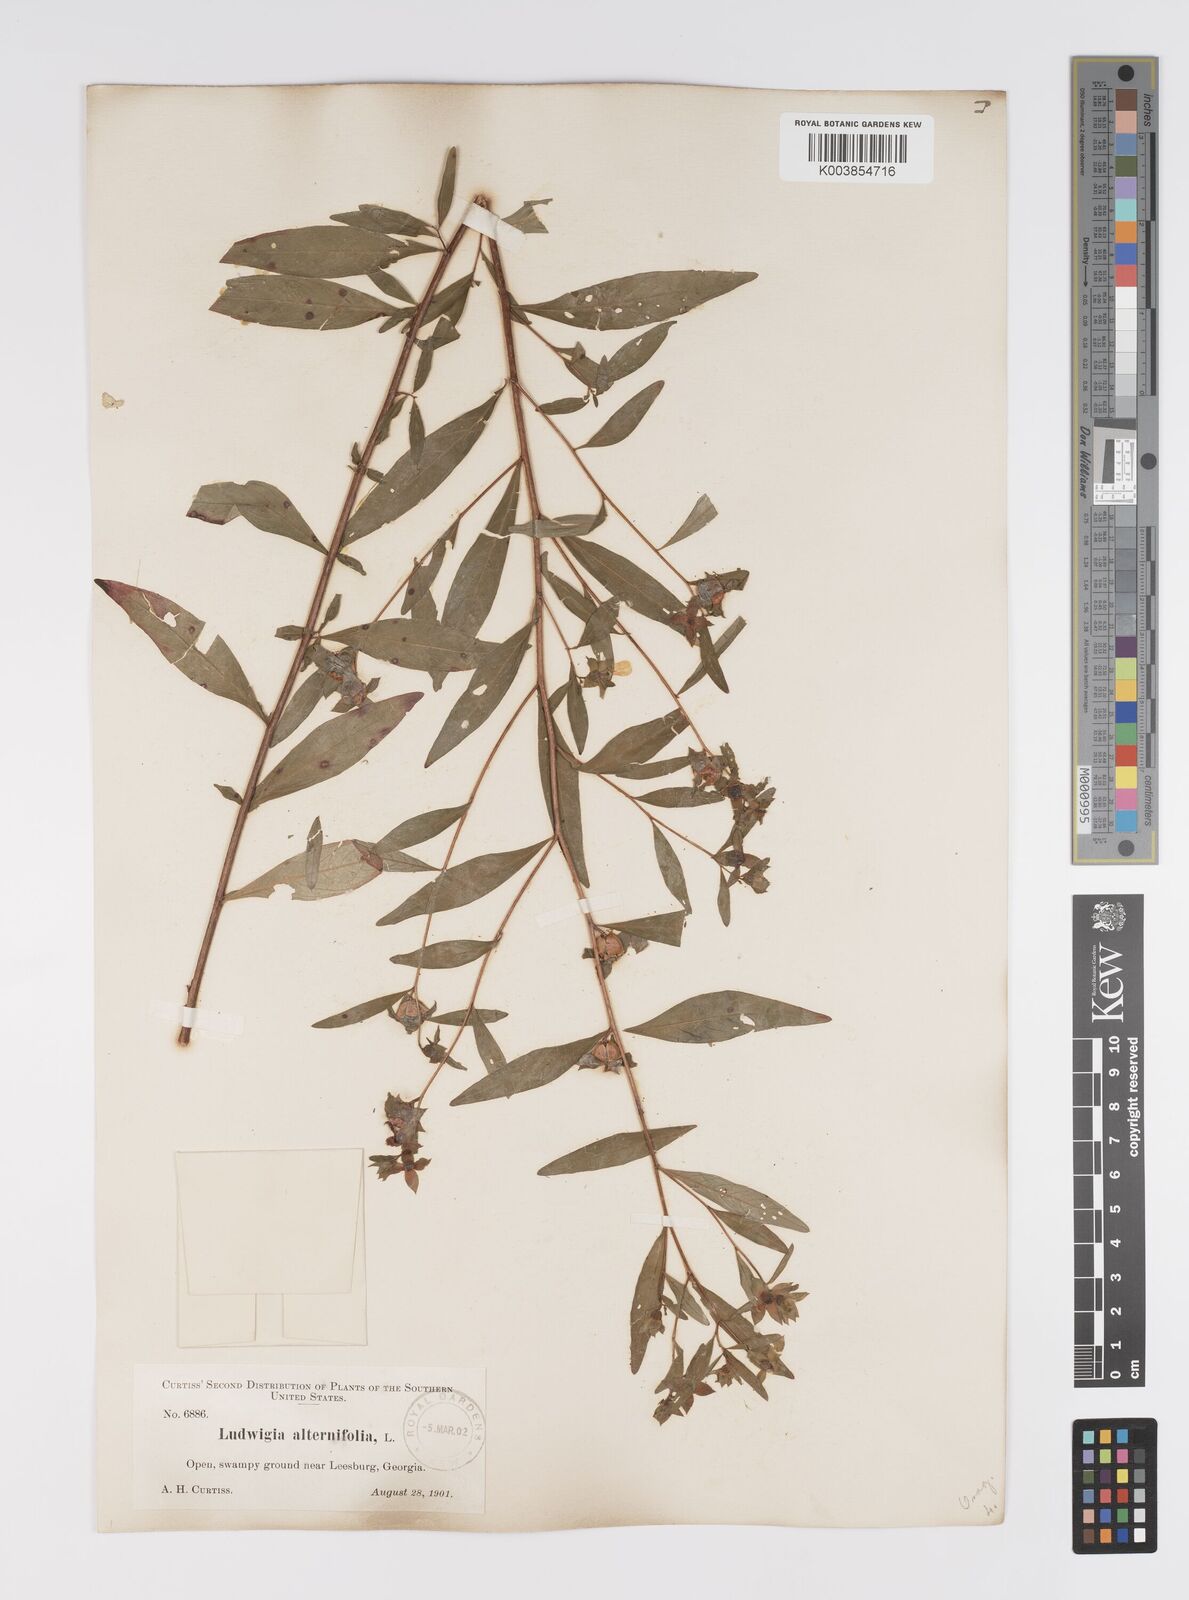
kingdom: Plantae
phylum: Tracheophyta
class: Magnoliopsida
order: Myrtales
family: Onagraceae
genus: Ludwigia
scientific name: Ludwigia alternifolia
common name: Rattlebox
